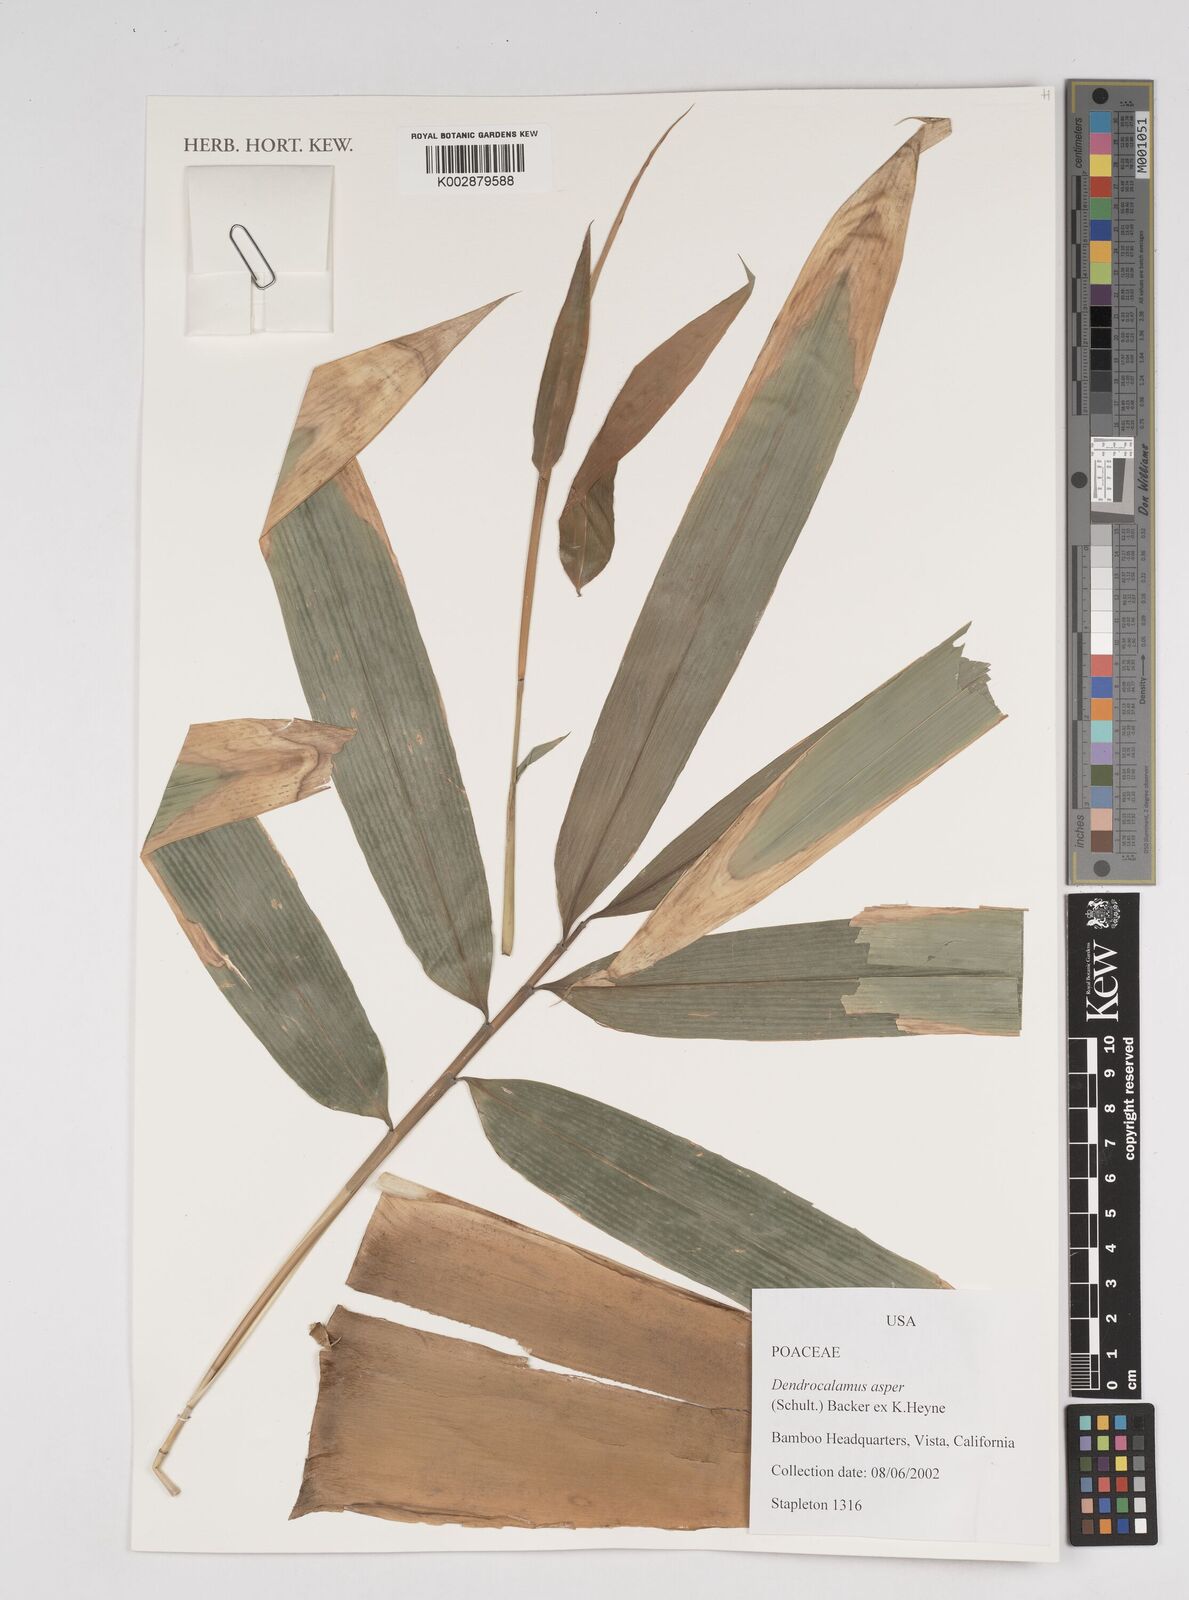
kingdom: Plantae
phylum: Tracheophyta
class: Liliopsida
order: Poales
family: Poaceae
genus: Dendrocalamus
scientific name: Dendrocalamus asper
